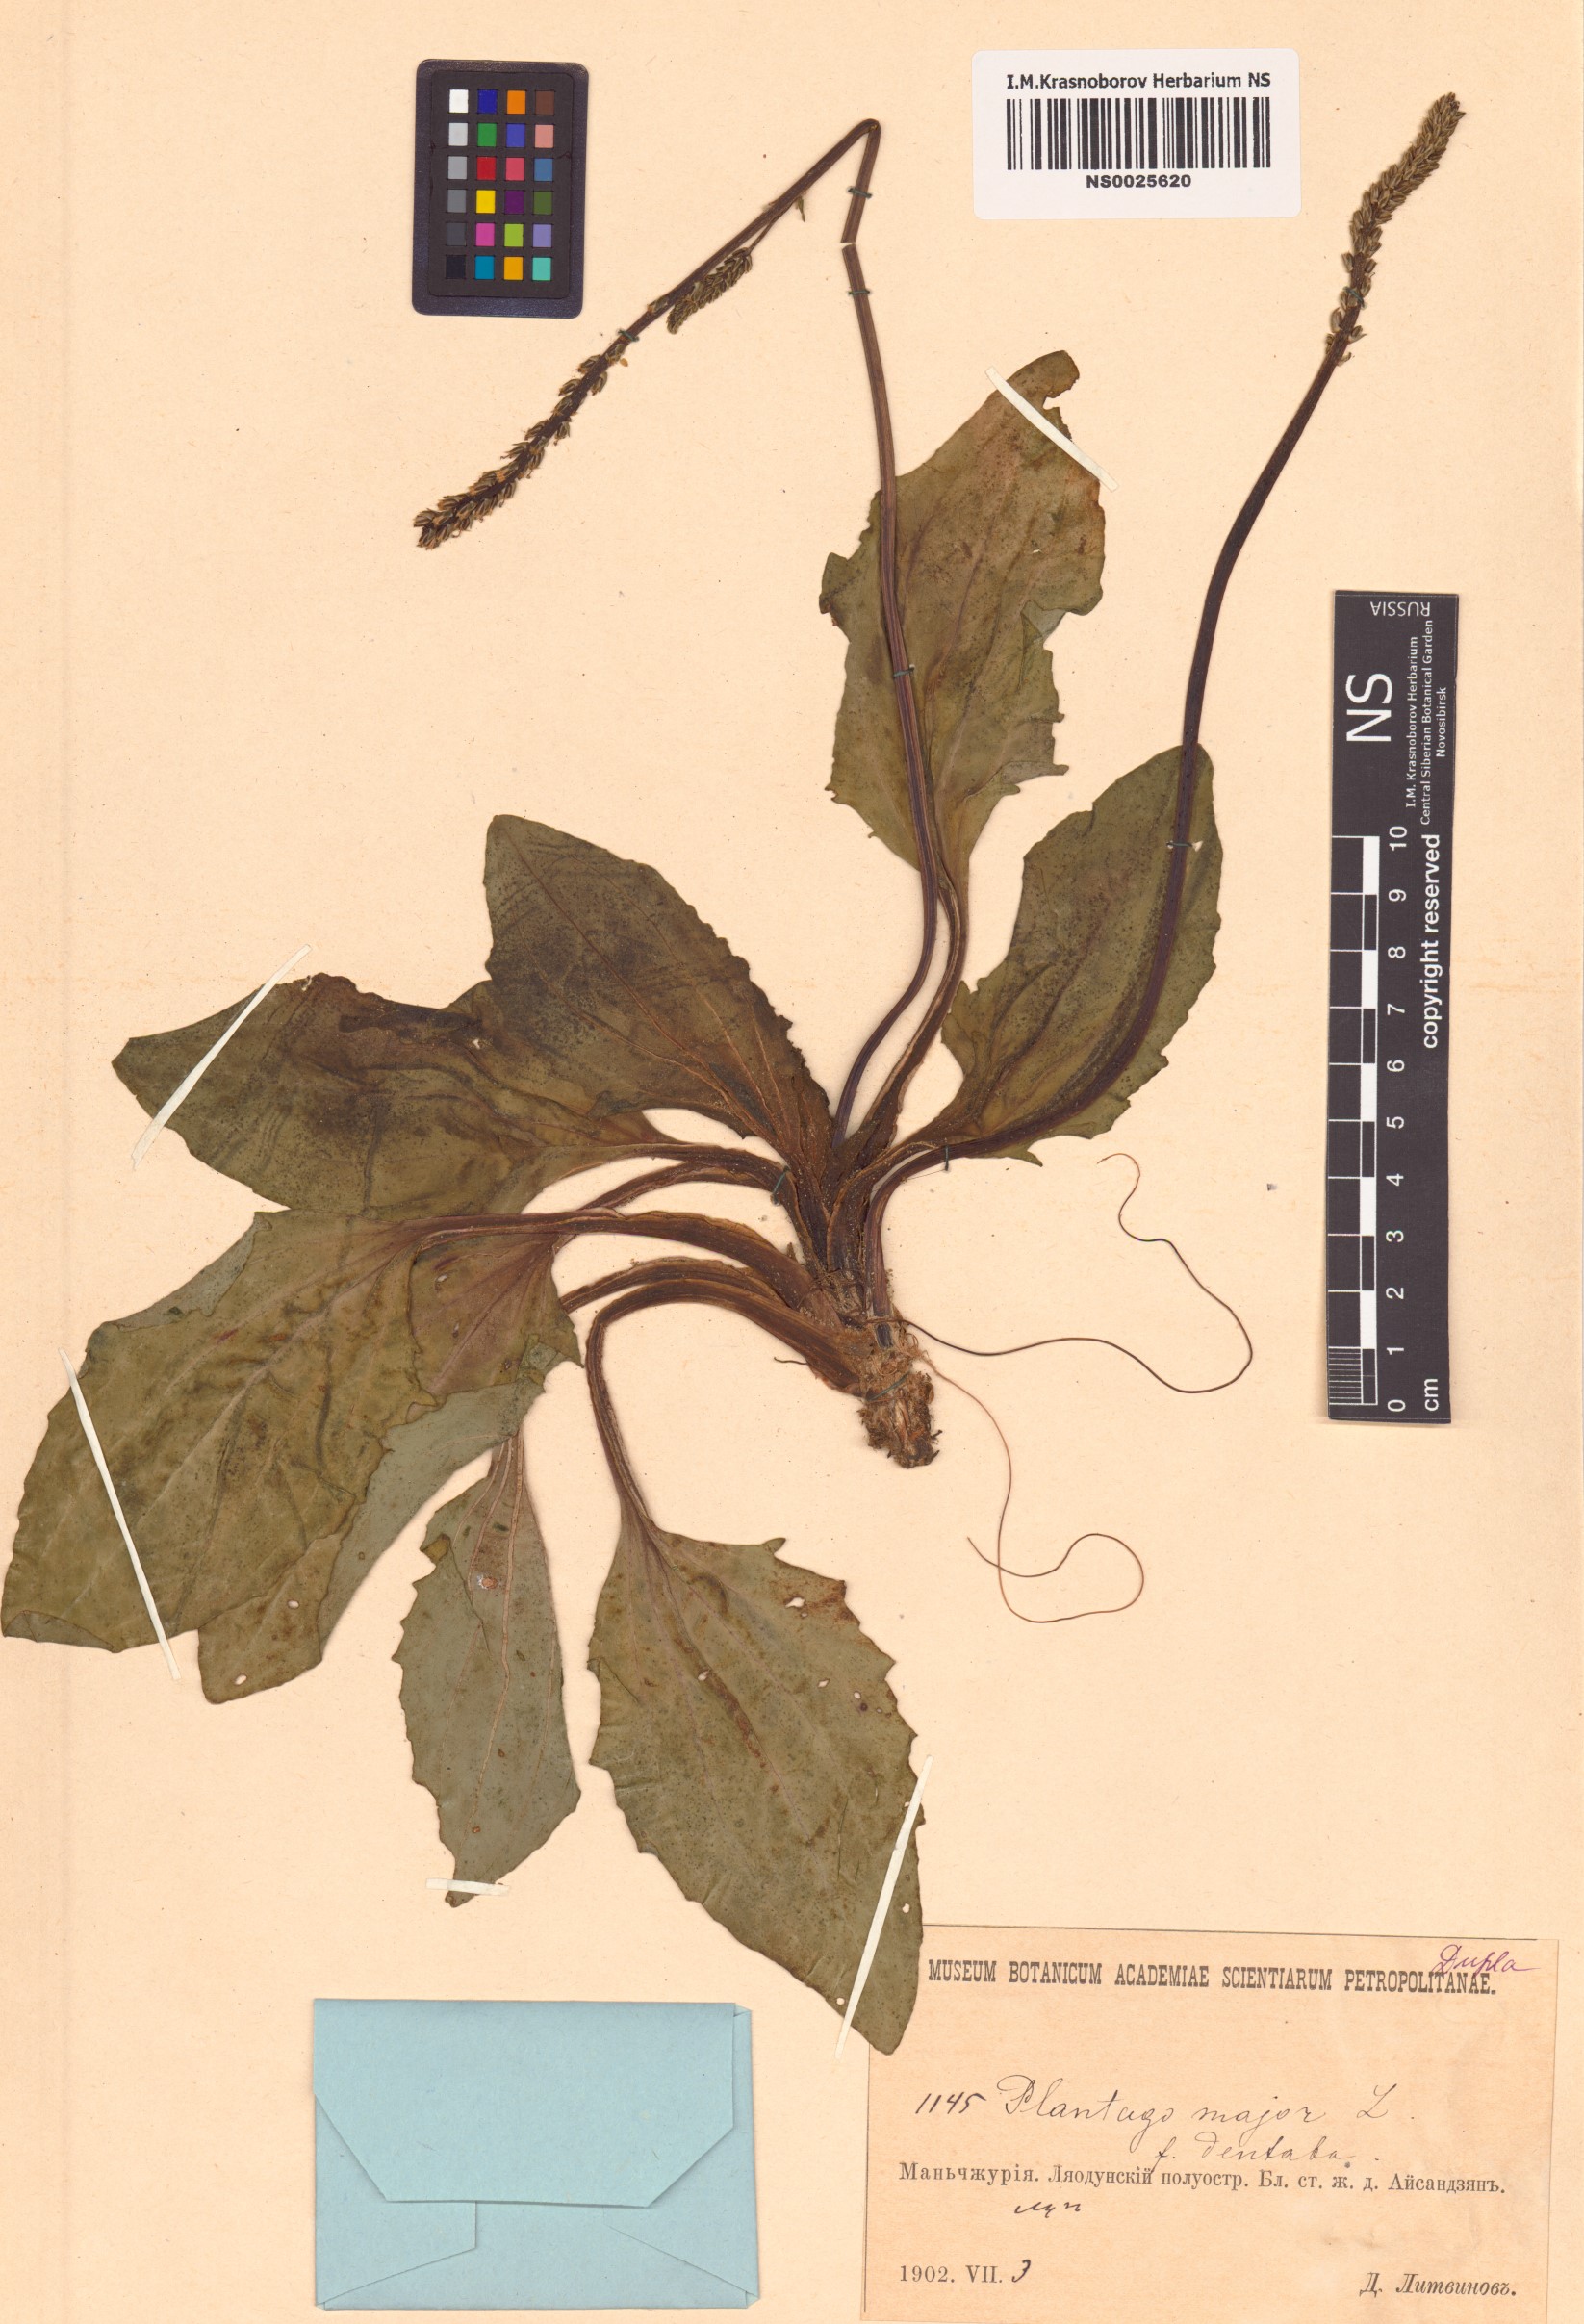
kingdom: Plantae
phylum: Tracheophyta
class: Magnoliopsida
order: Lamiales
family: Plantaginaceae
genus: Plantago
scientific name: Plantago major
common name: Common plantain
